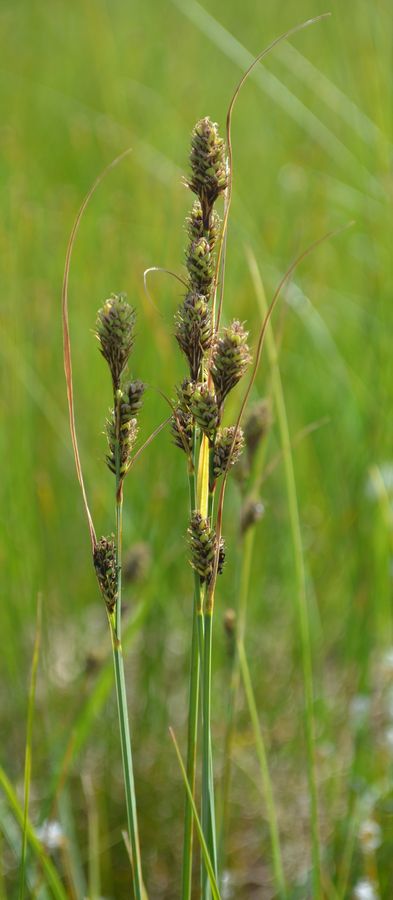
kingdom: Plantae
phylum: Tracheophyta
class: Liliopsida
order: Poales
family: Cyperaceae
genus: Carex
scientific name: Carex buxbaumii
